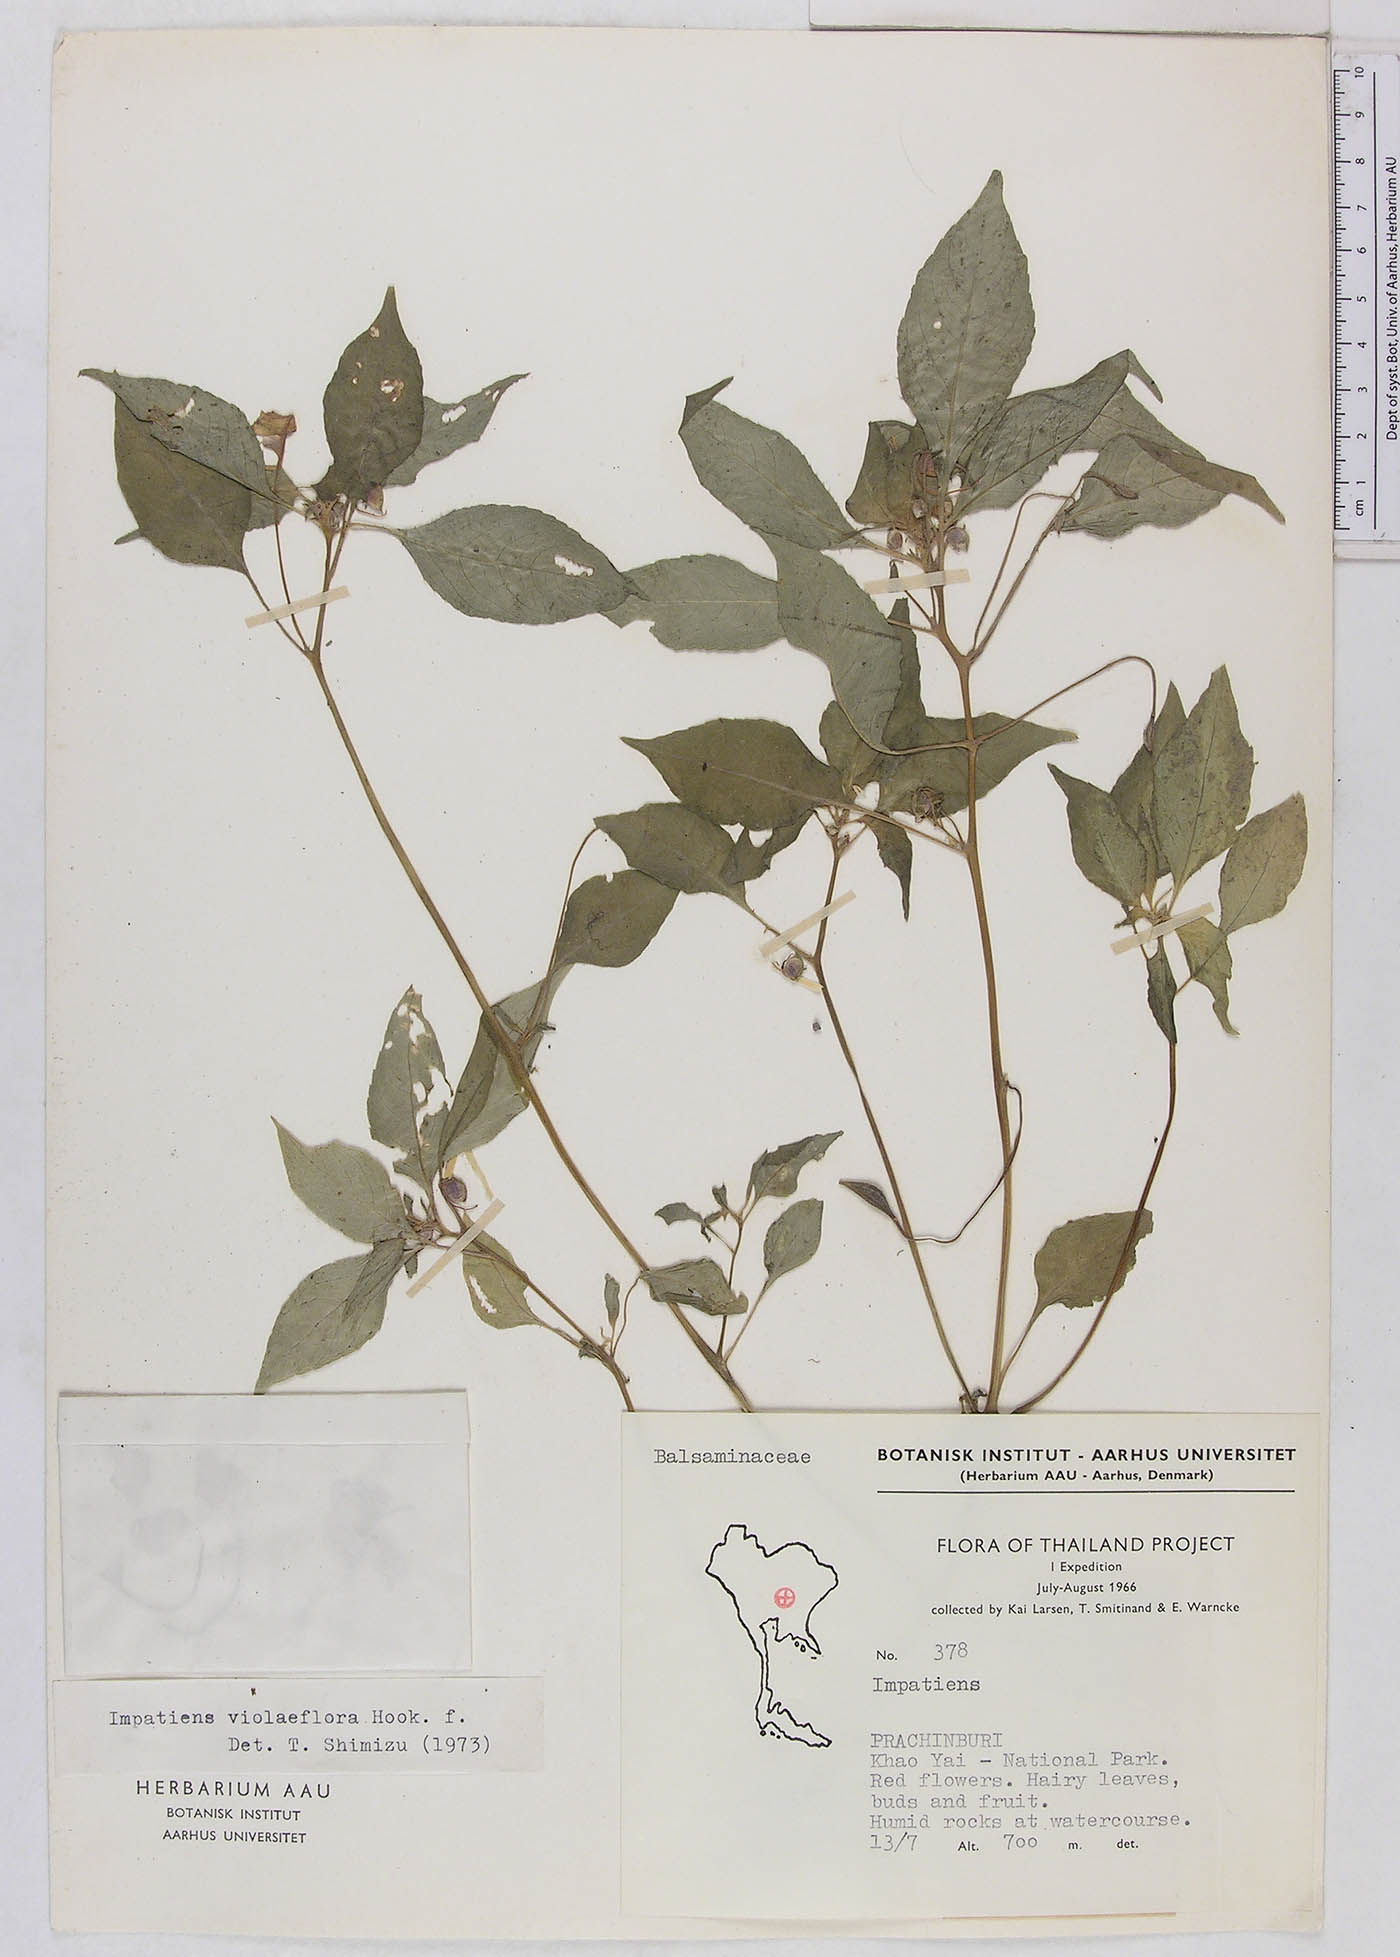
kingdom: Plantae
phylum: Tracheophyta
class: Magnoliopsida
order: Ericales
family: Balsaminaceae
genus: Impatiens
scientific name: Impatiens violiflora
